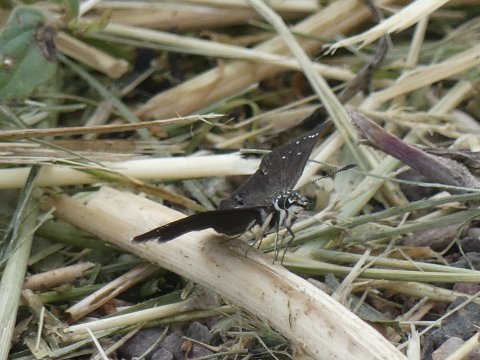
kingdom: Animalia
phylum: Arthropoda
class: Insecta
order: Lepidoptera
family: Hesperiidae
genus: Pholisora
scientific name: Pholisora catullus
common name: Common Sootywing
